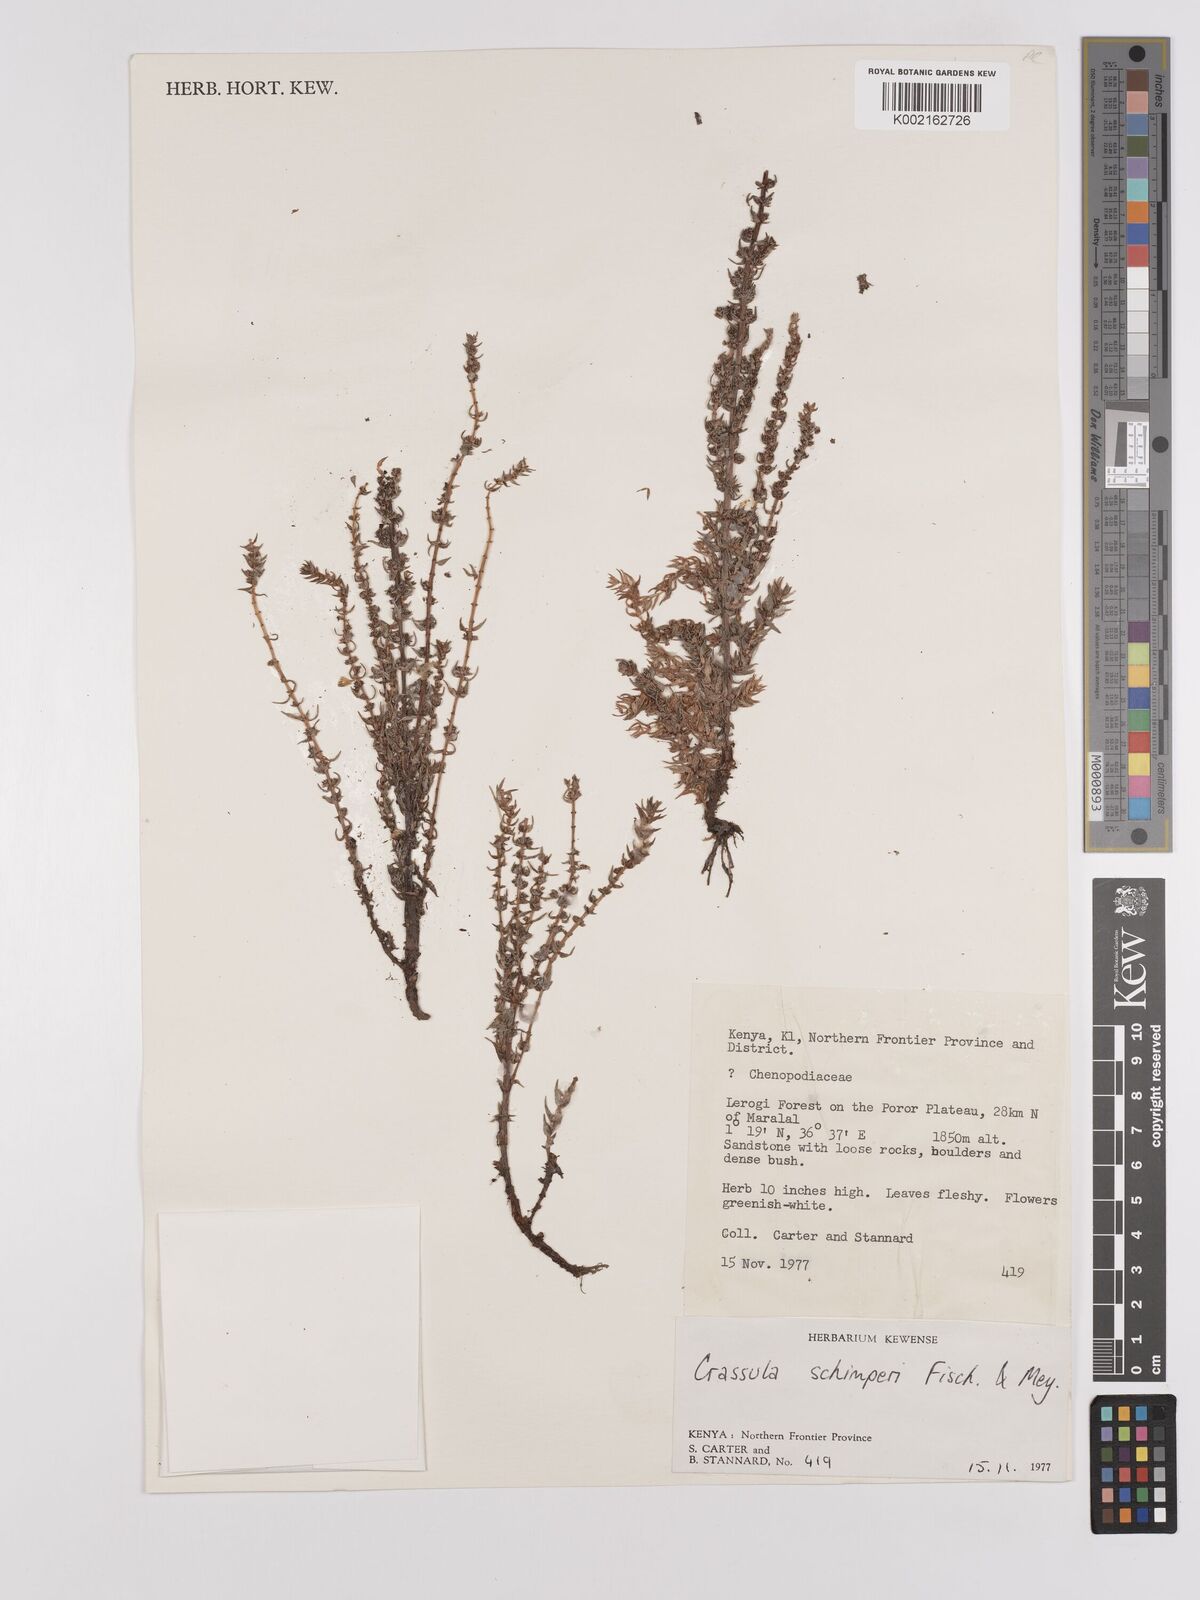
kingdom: Plantae
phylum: Tracheophyta
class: Magnoliopsida
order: Saxifragales
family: Crassulaceae
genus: Crassula
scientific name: Crassula schimperi
